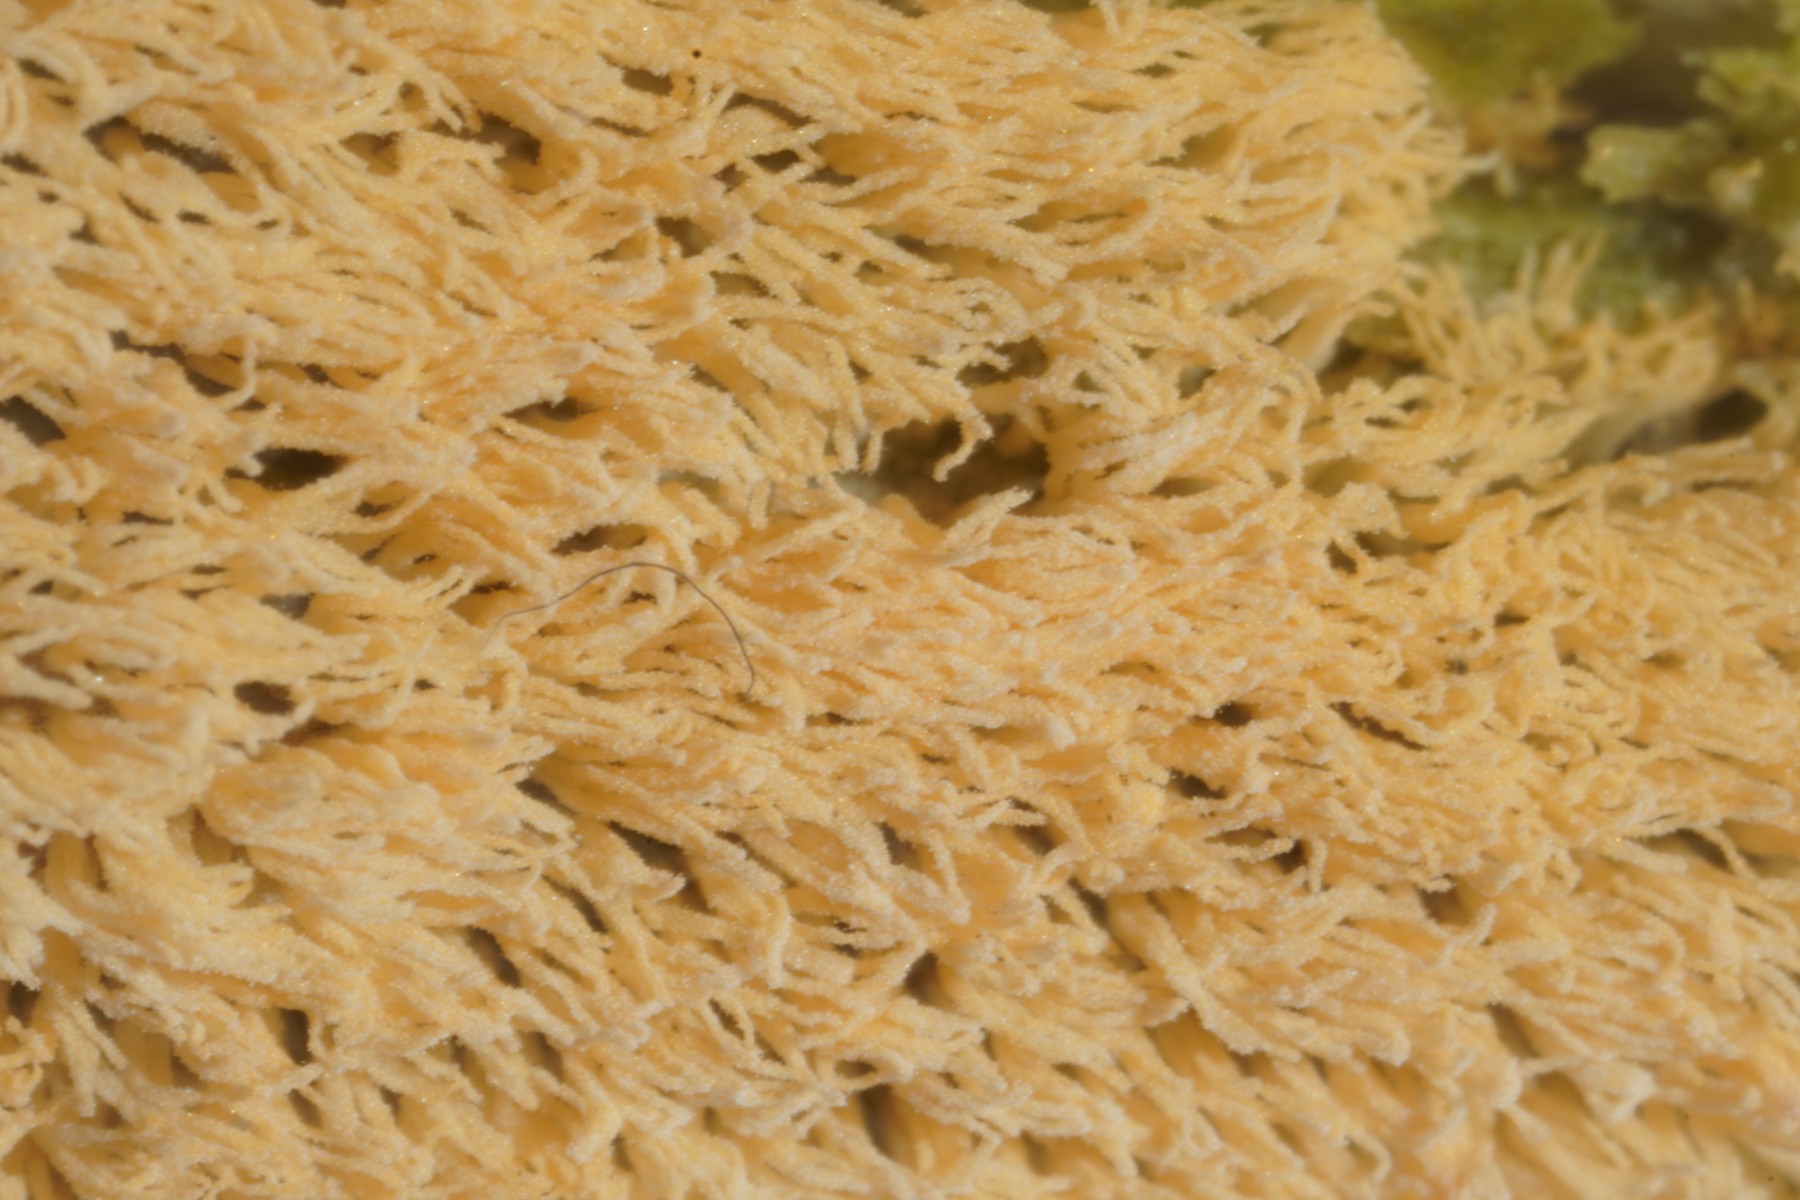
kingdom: Protozoa
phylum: Mycetozoa
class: Protosteliomycetes
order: Ceratiomyxales
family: Ceratiomyxaceae
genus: Ceratiomyxa
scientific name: Ceratiomyxa fruticulosa
